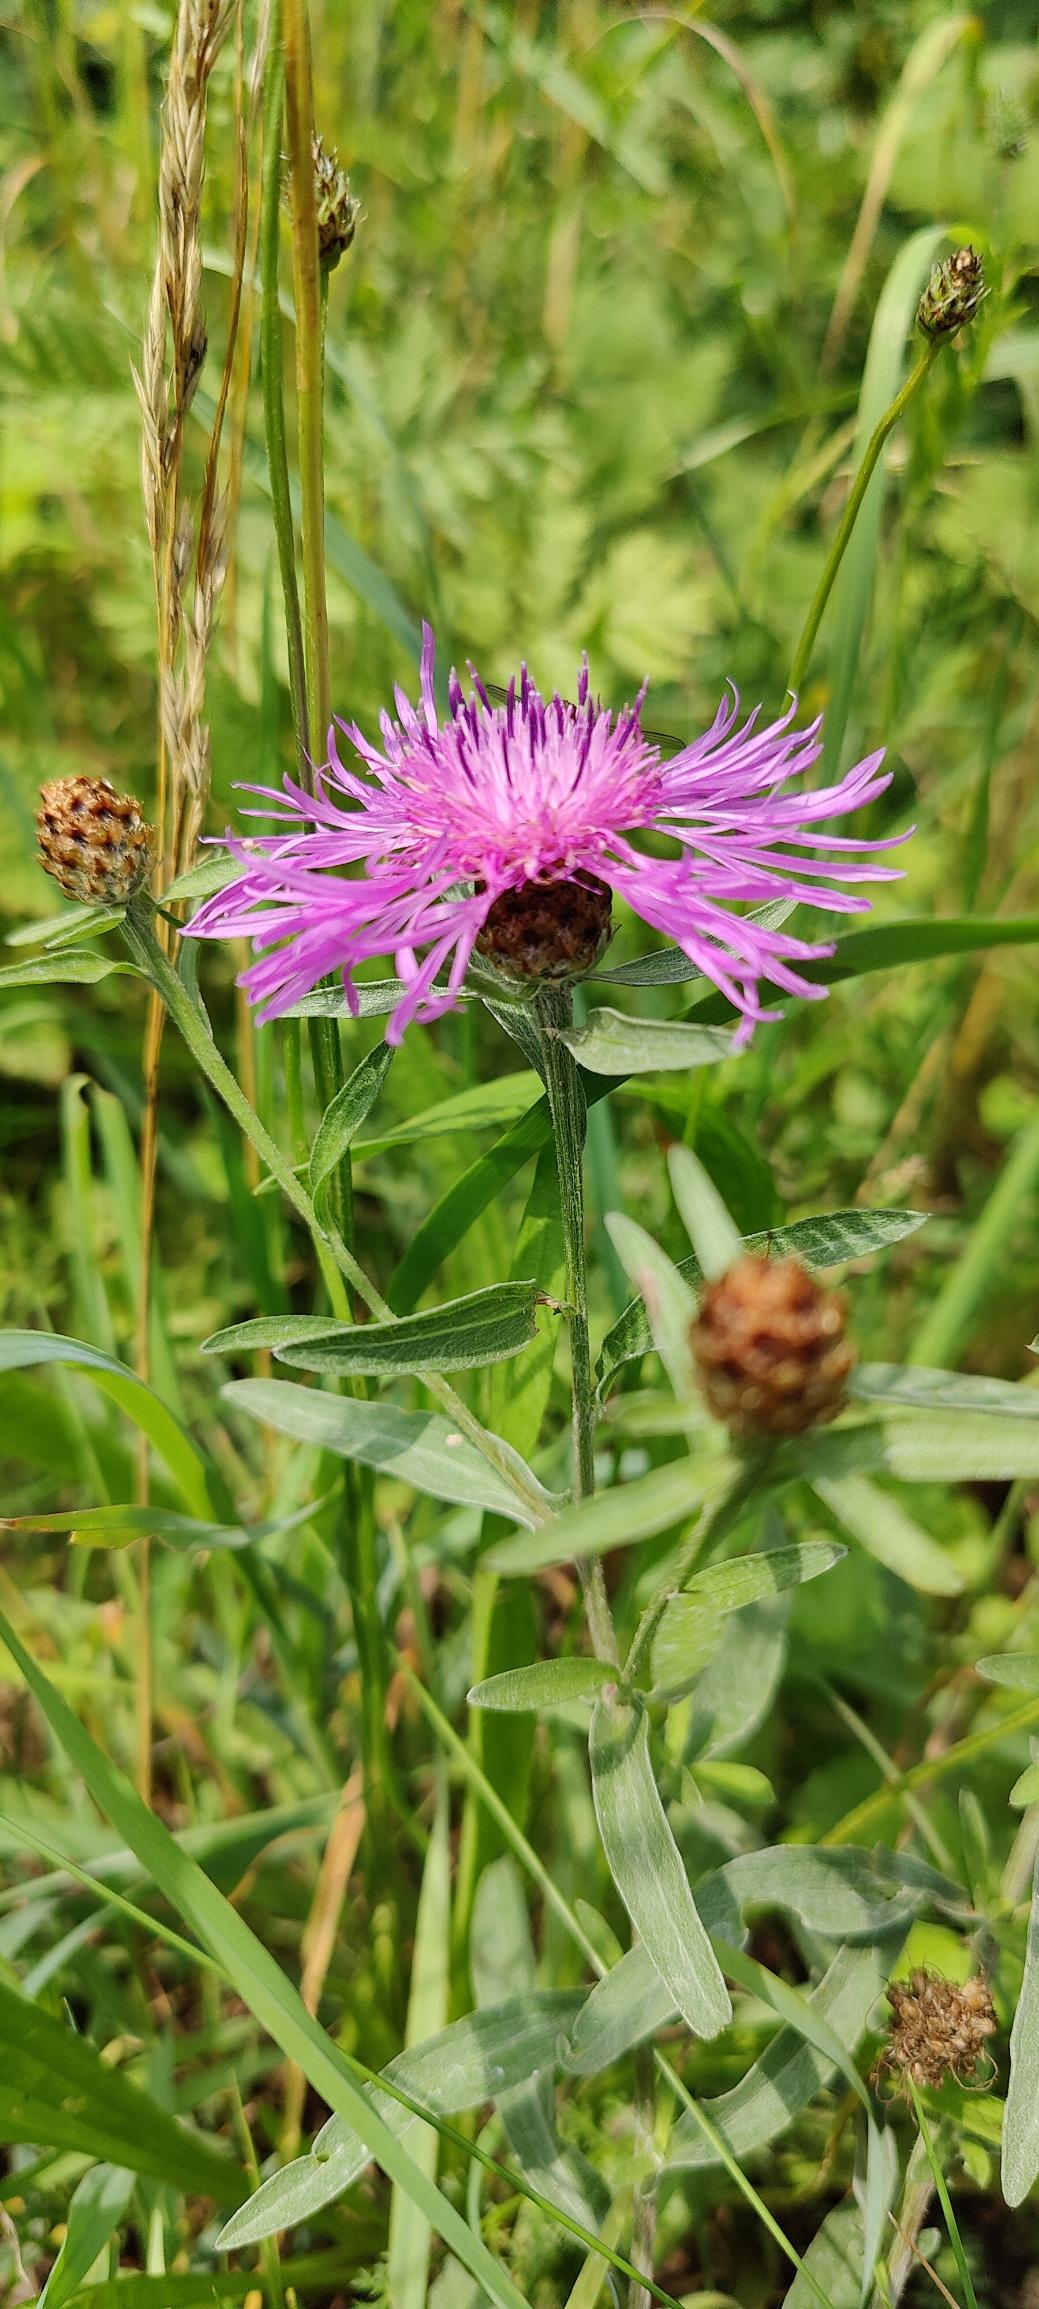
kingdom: Plantae
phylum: Tracheophyta
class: Magnoliopsida
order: Asterales
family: Asteraceae
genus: Centaurea
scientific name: Centaurea jacea
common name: Almindelig knopurt
